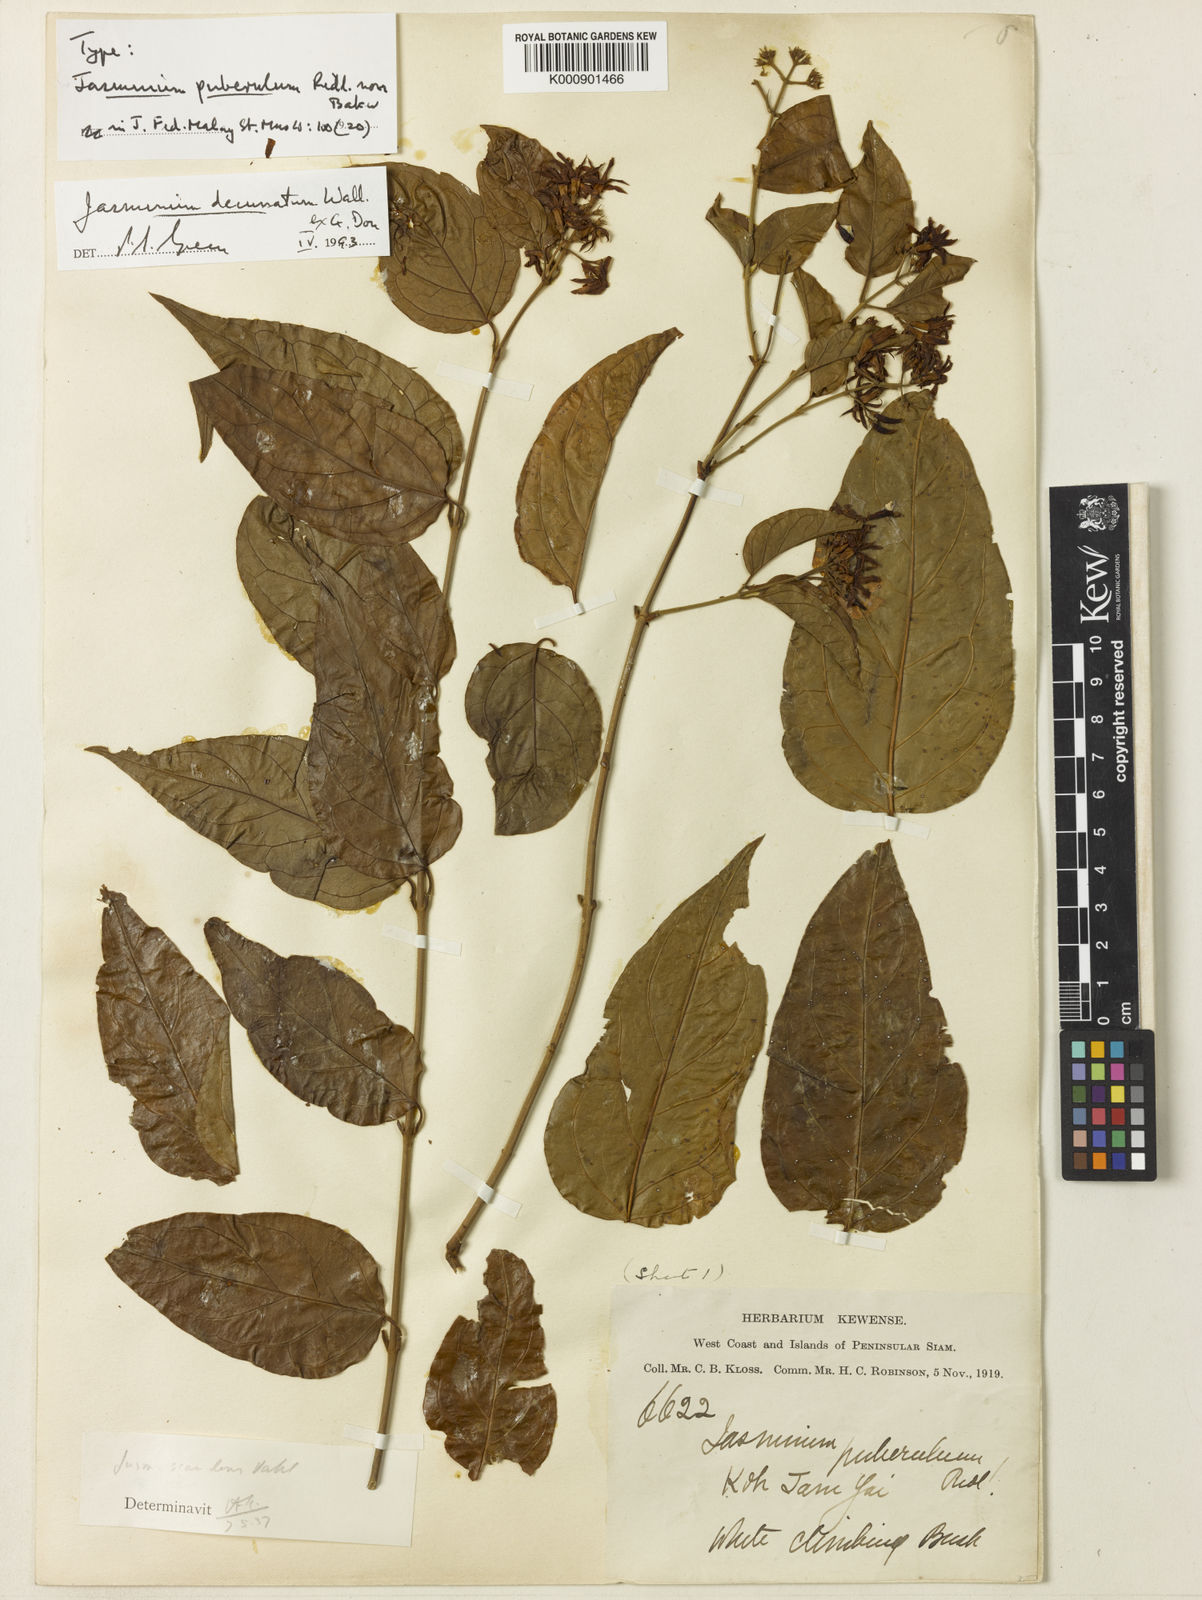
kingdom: Plantae
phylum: Tracheophyta
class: Magnoliopsida
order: Lamiales
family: Oleaceae
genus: Jasminum
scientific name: Jasminum decussatum
